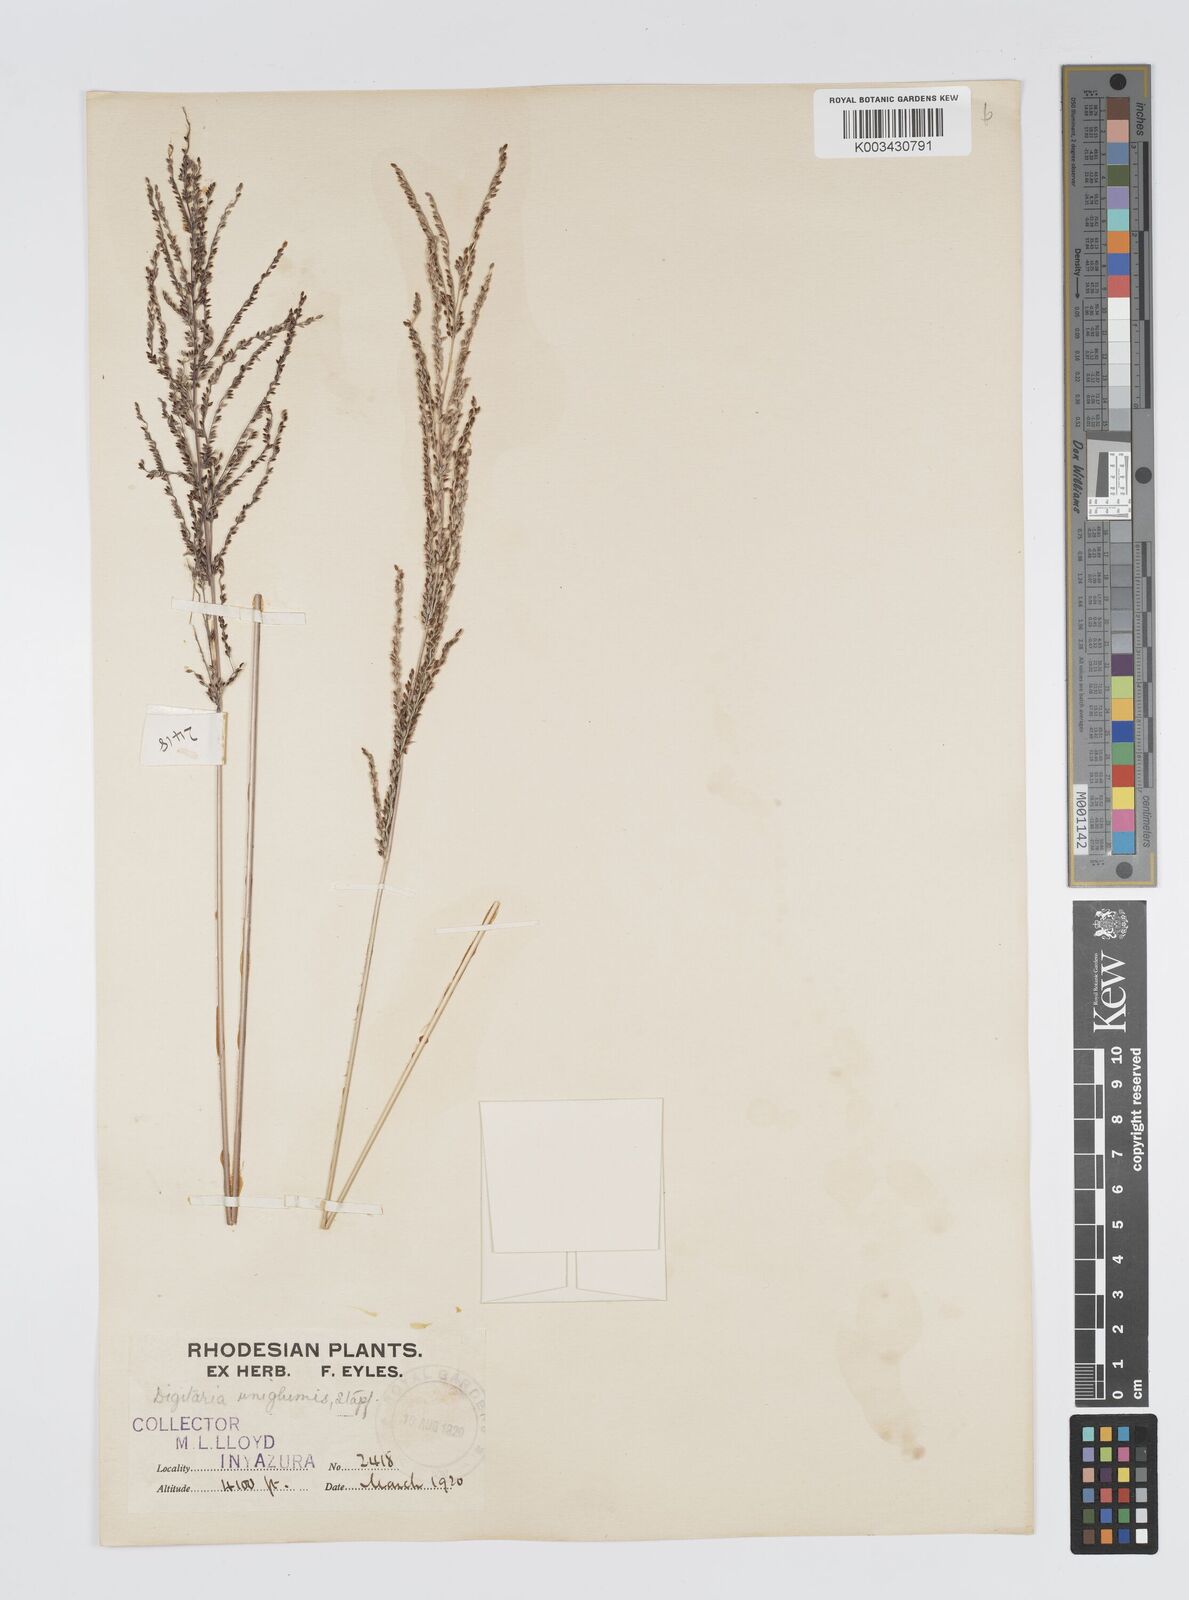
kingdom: Plantae
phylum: Tracheophyta
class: Liliopsida
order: Poales
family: Poaceae
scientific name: Poaceae
